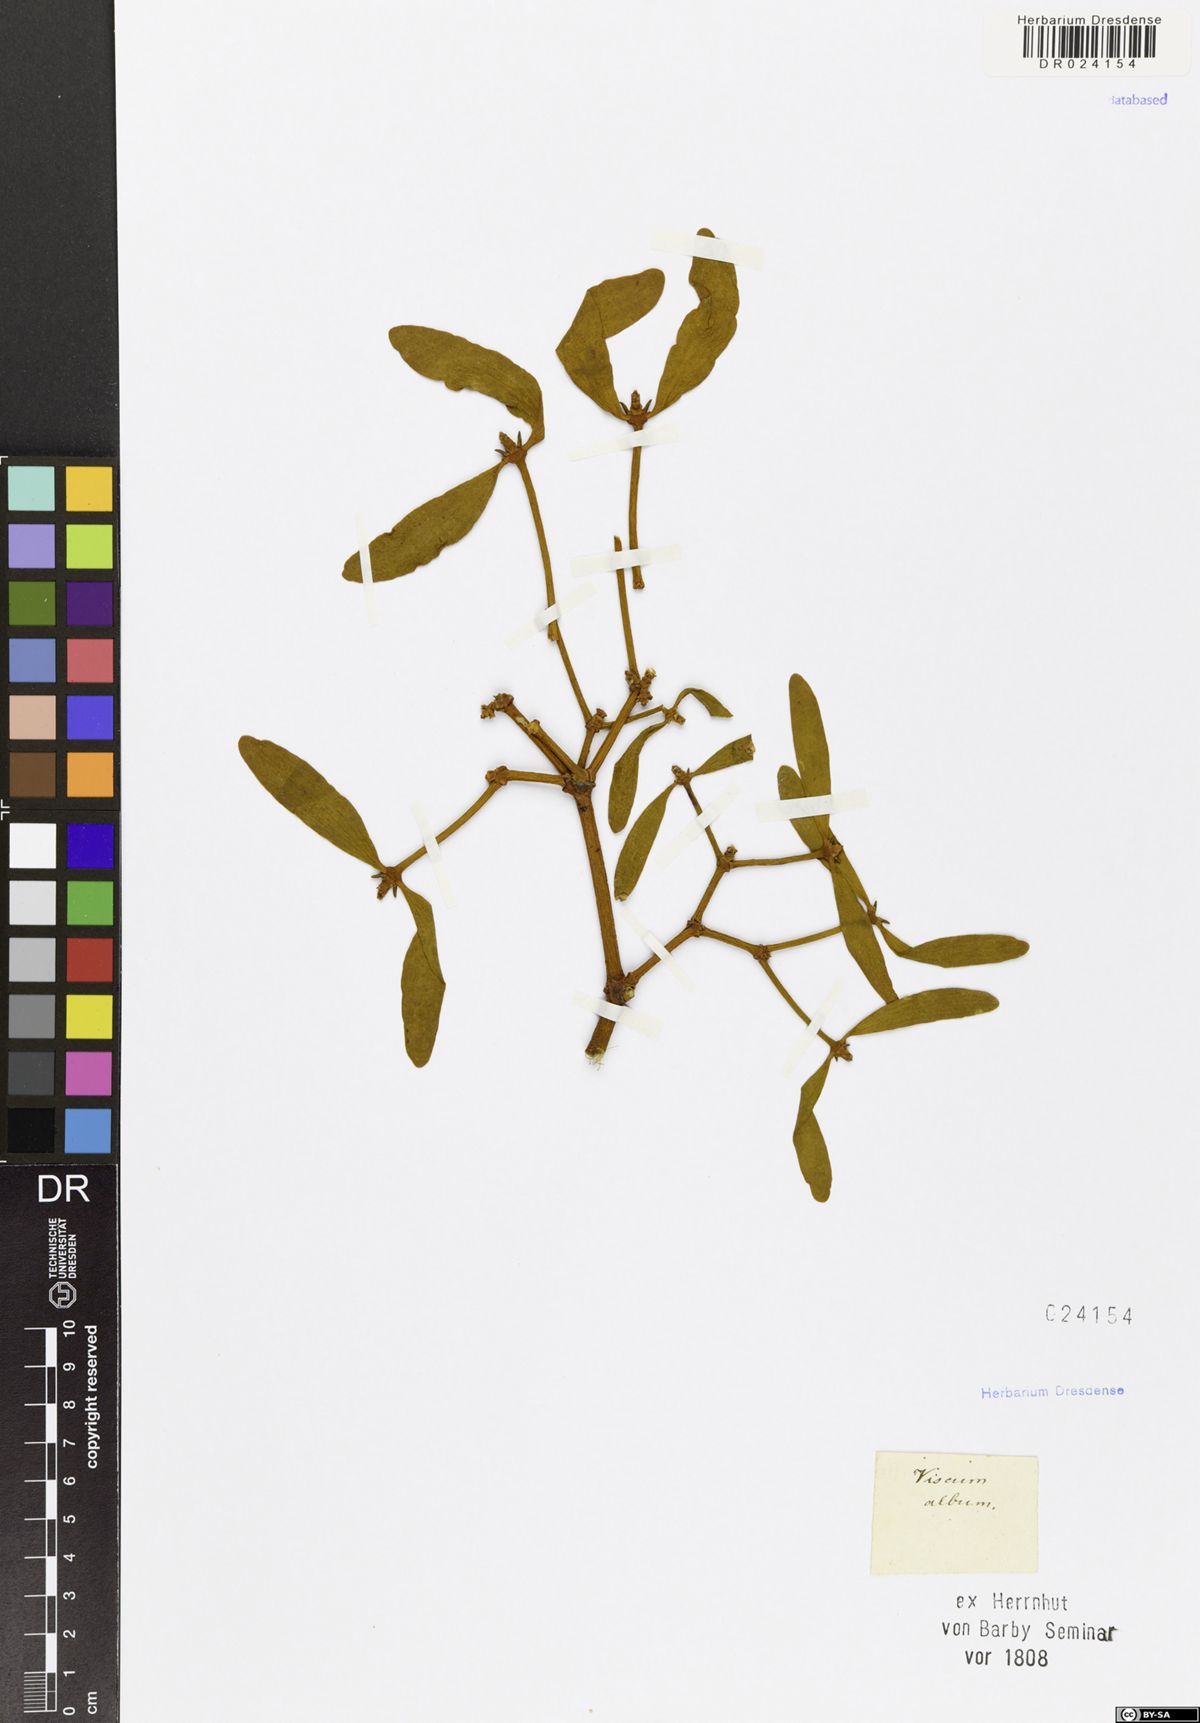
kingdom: Plantae
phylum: Tracheophyta
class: Magnoliopsida
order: Santalales
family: Viscaceae
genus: Viscum
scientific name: Viscum album
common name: Mistletoe
